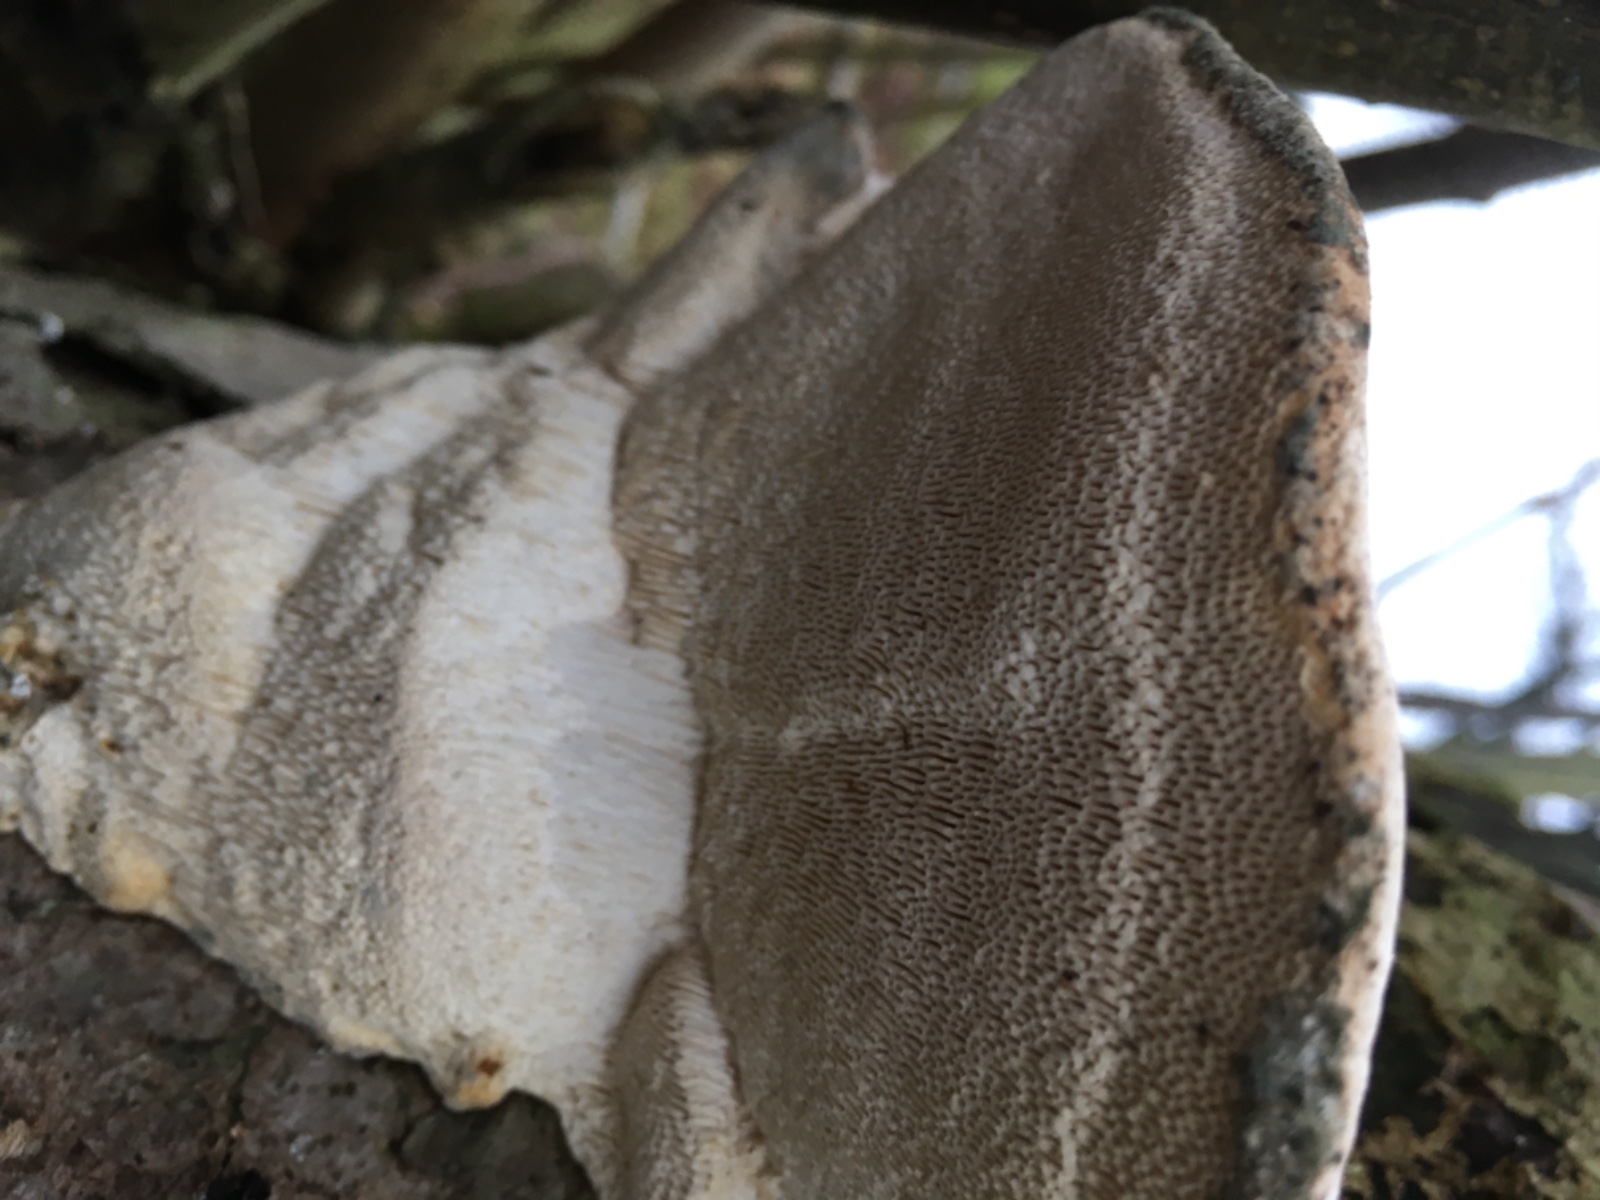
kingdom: Fungi
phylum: Basidiomycota
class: Agaricomycetes
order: Polyporales
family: Polyporaceae
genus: Trametes
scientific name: Trametes gibbosa
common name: puklet læderporesvamp
